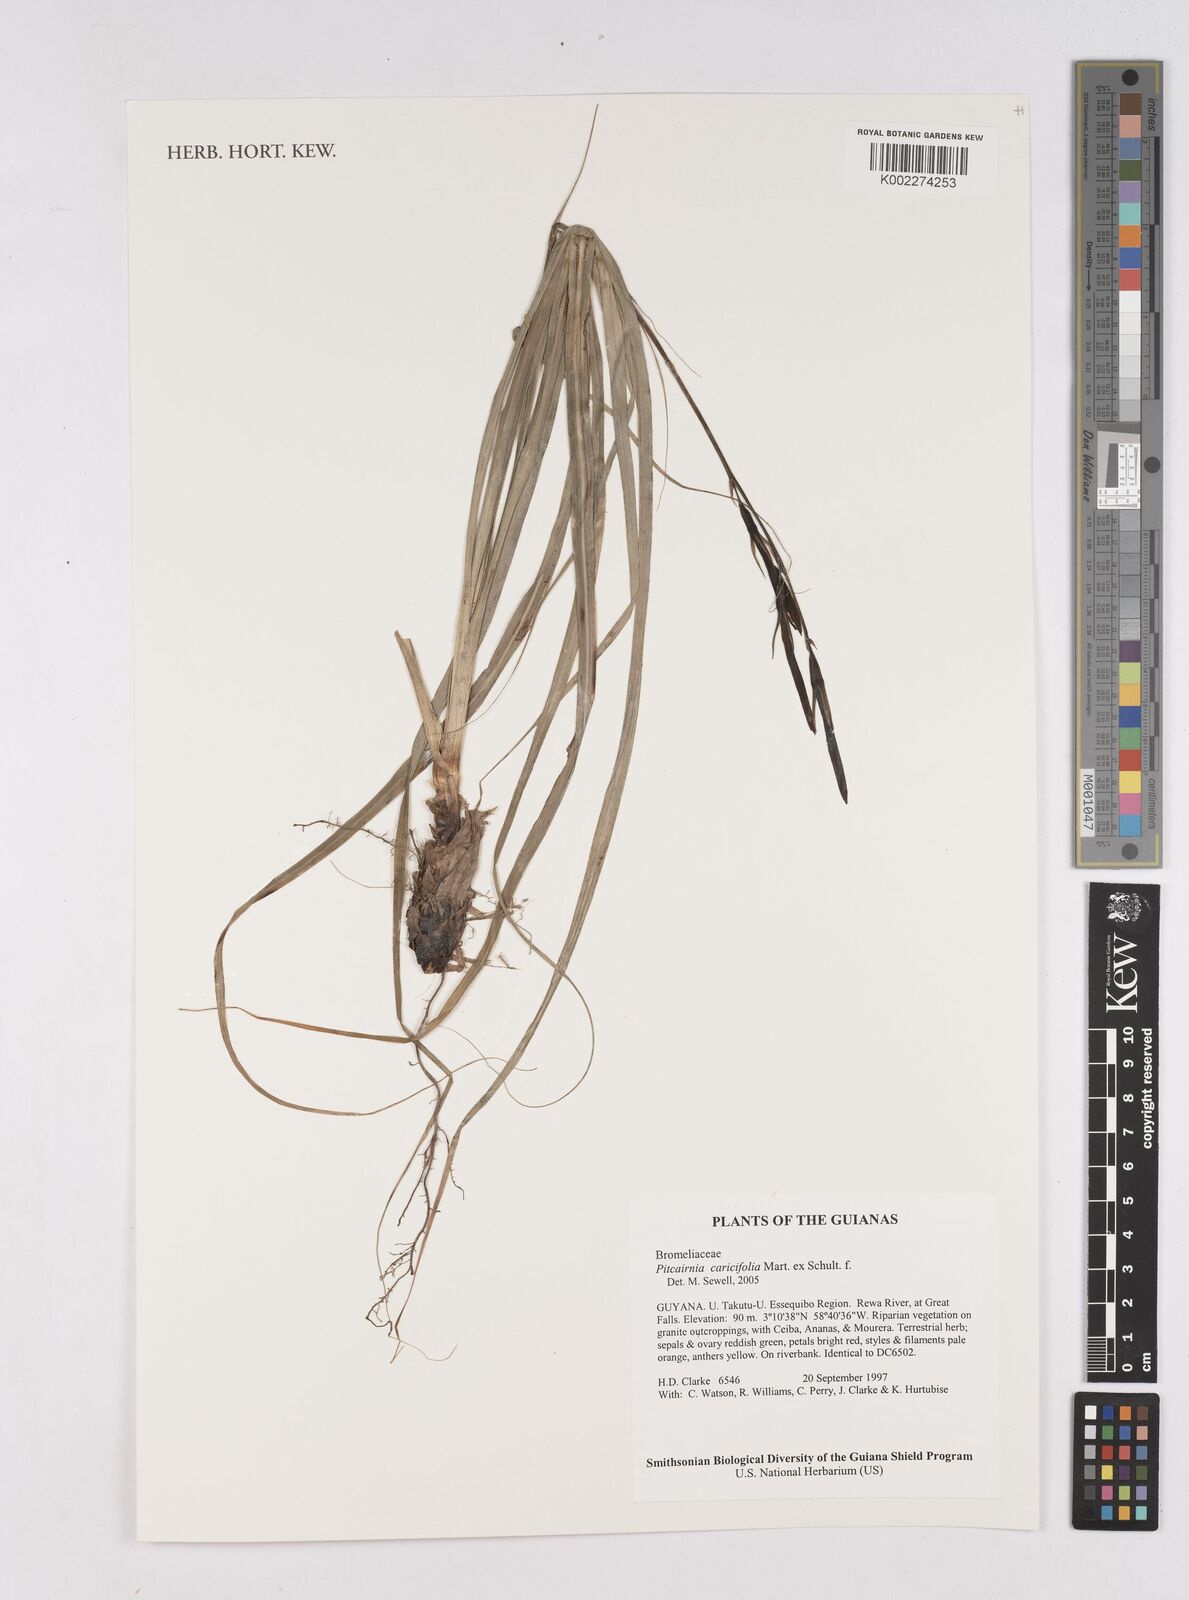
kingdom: Plantae
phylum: Tracheophyta
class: Liliopsida
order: Poales
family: Bromeliaceae
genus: Pitcairnia
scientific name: Pitcairnia caricifolia
